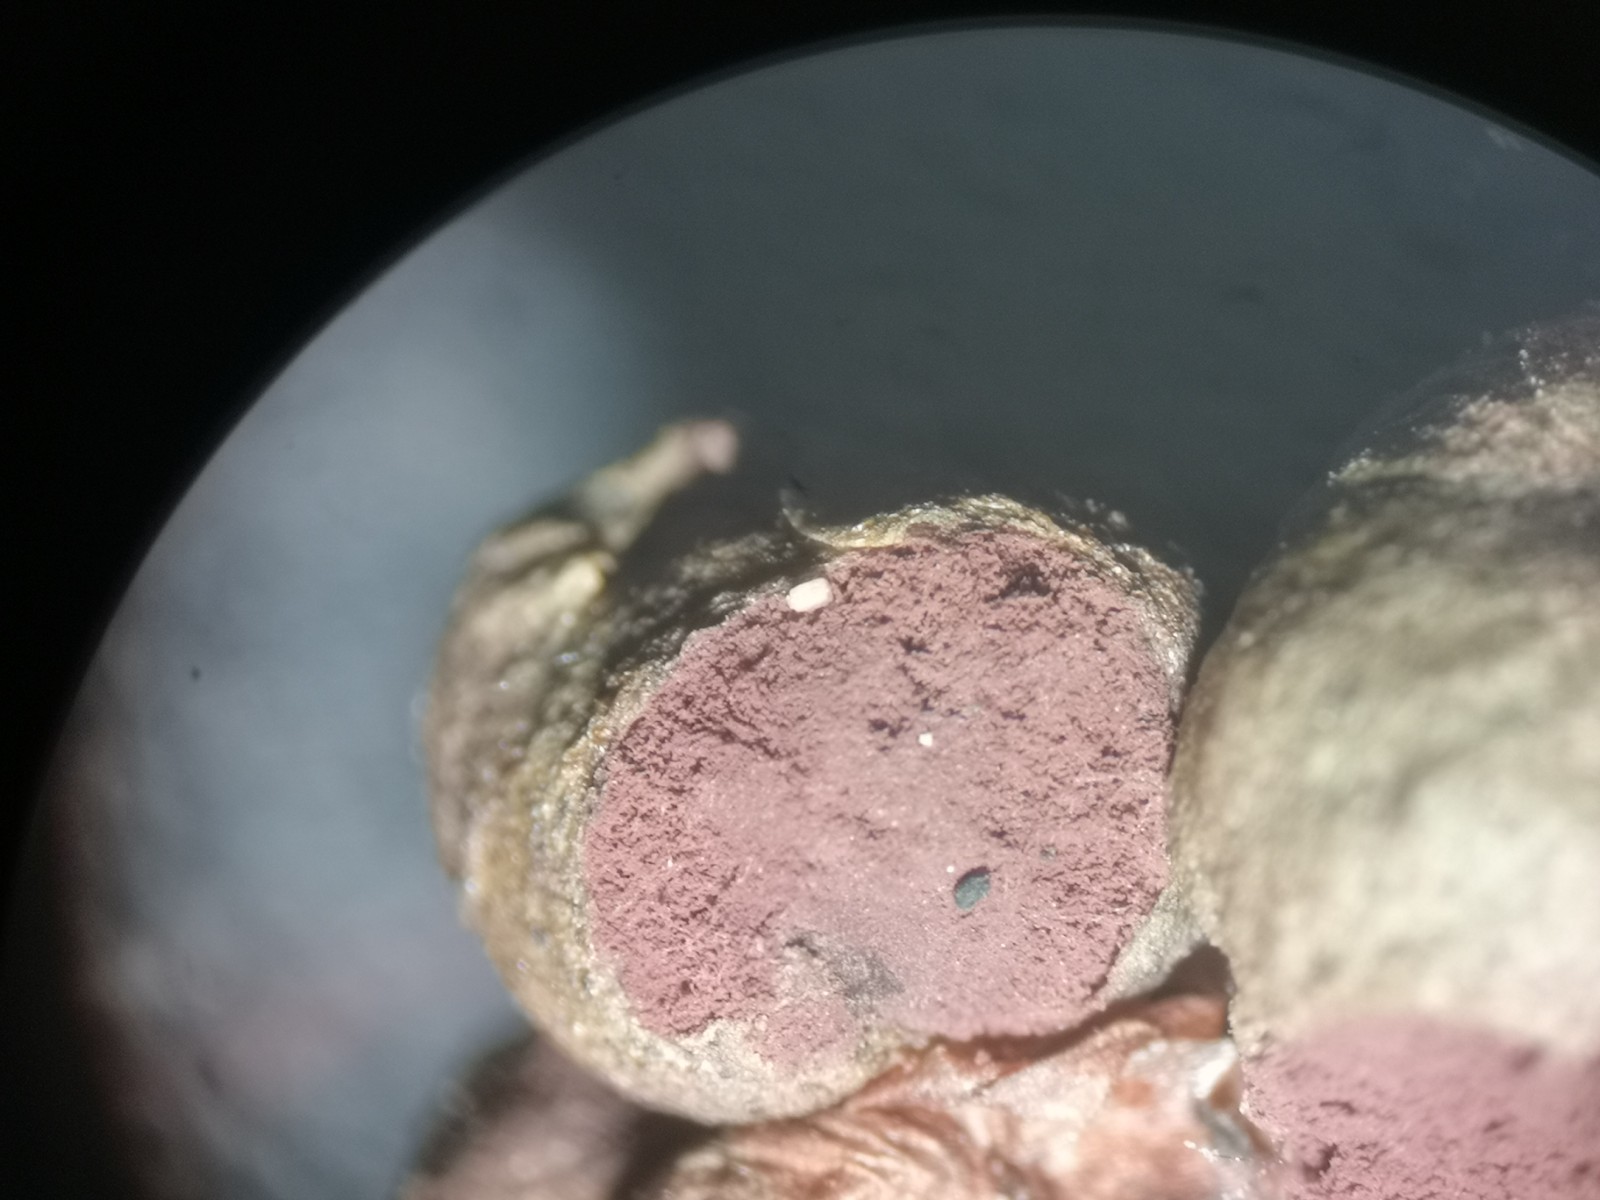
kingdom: Fungi
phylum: Basidiomycota
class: Microbotryomycetes
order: Microbotryales
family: Microbotryaceae
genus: Sphacelotheca
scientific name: Sphacelotheca hydropiperis
